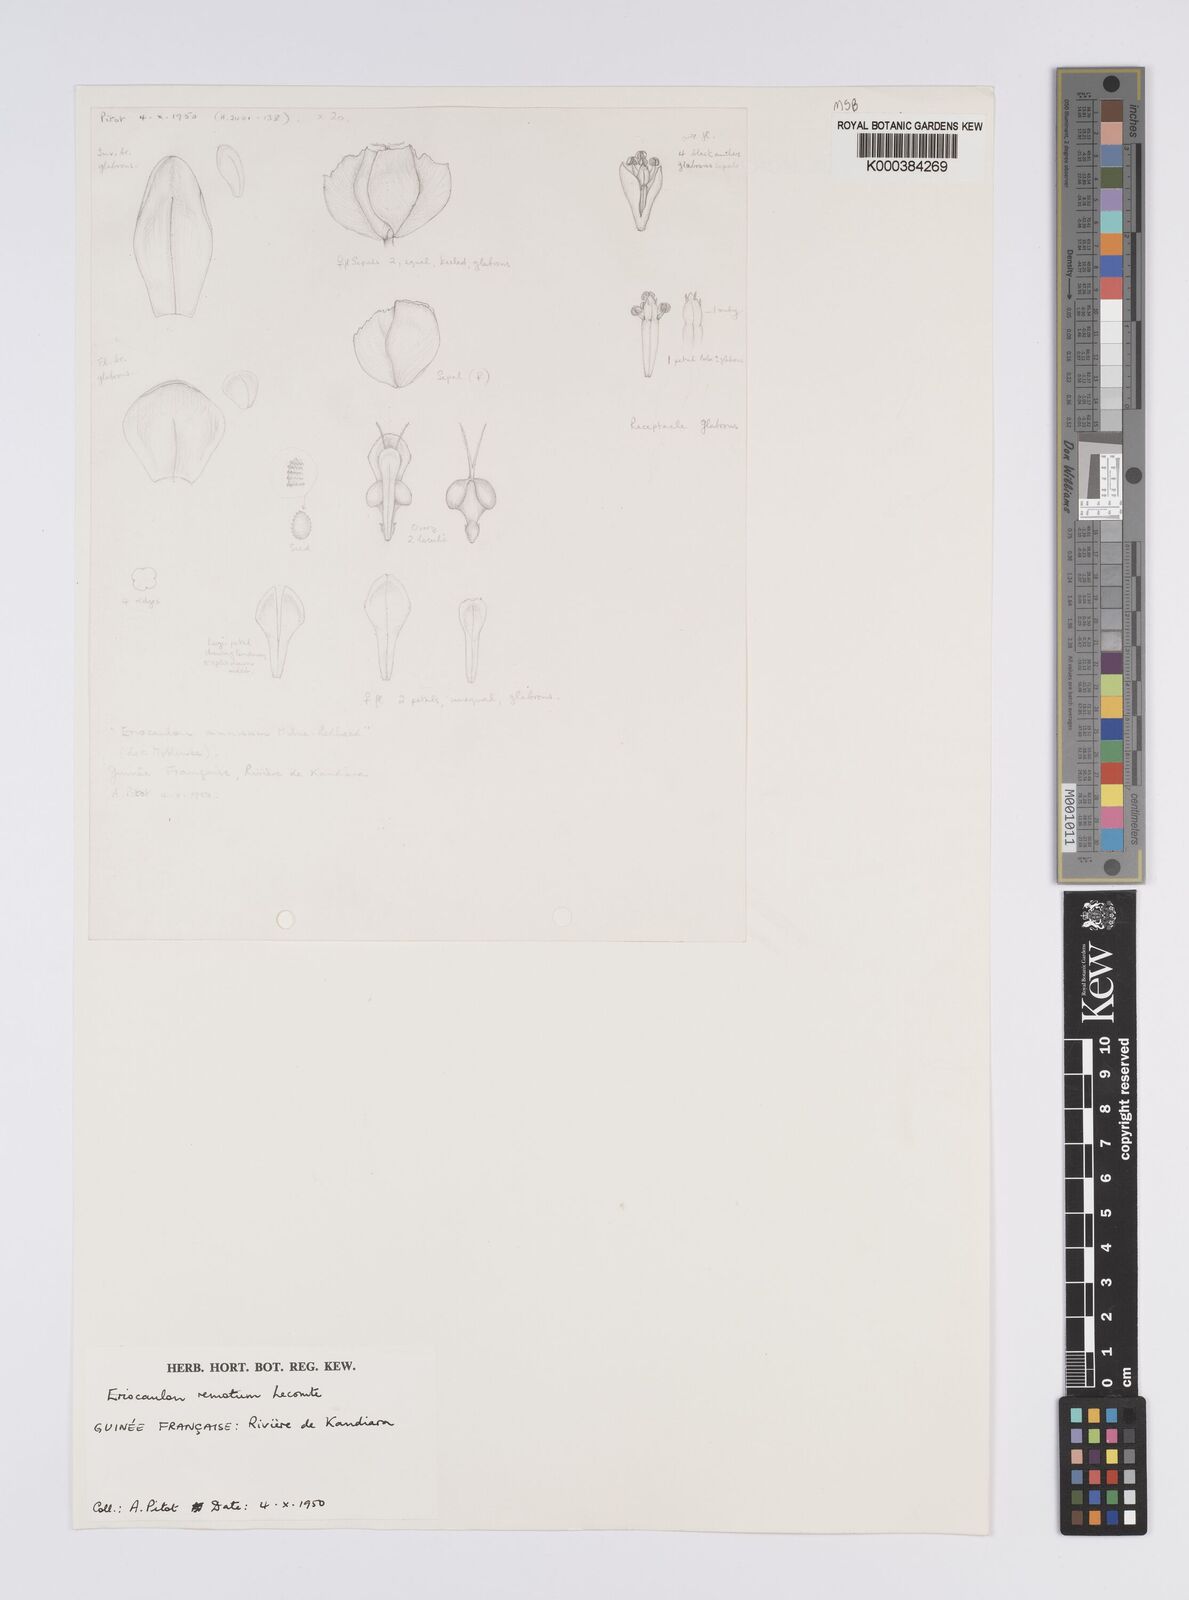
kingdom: Plantae
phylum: Tracheophyta
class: Liliopsida
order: Poales
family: Eriocaulaceae
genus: Eriocaulon
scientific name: Eriocaulon remotum
